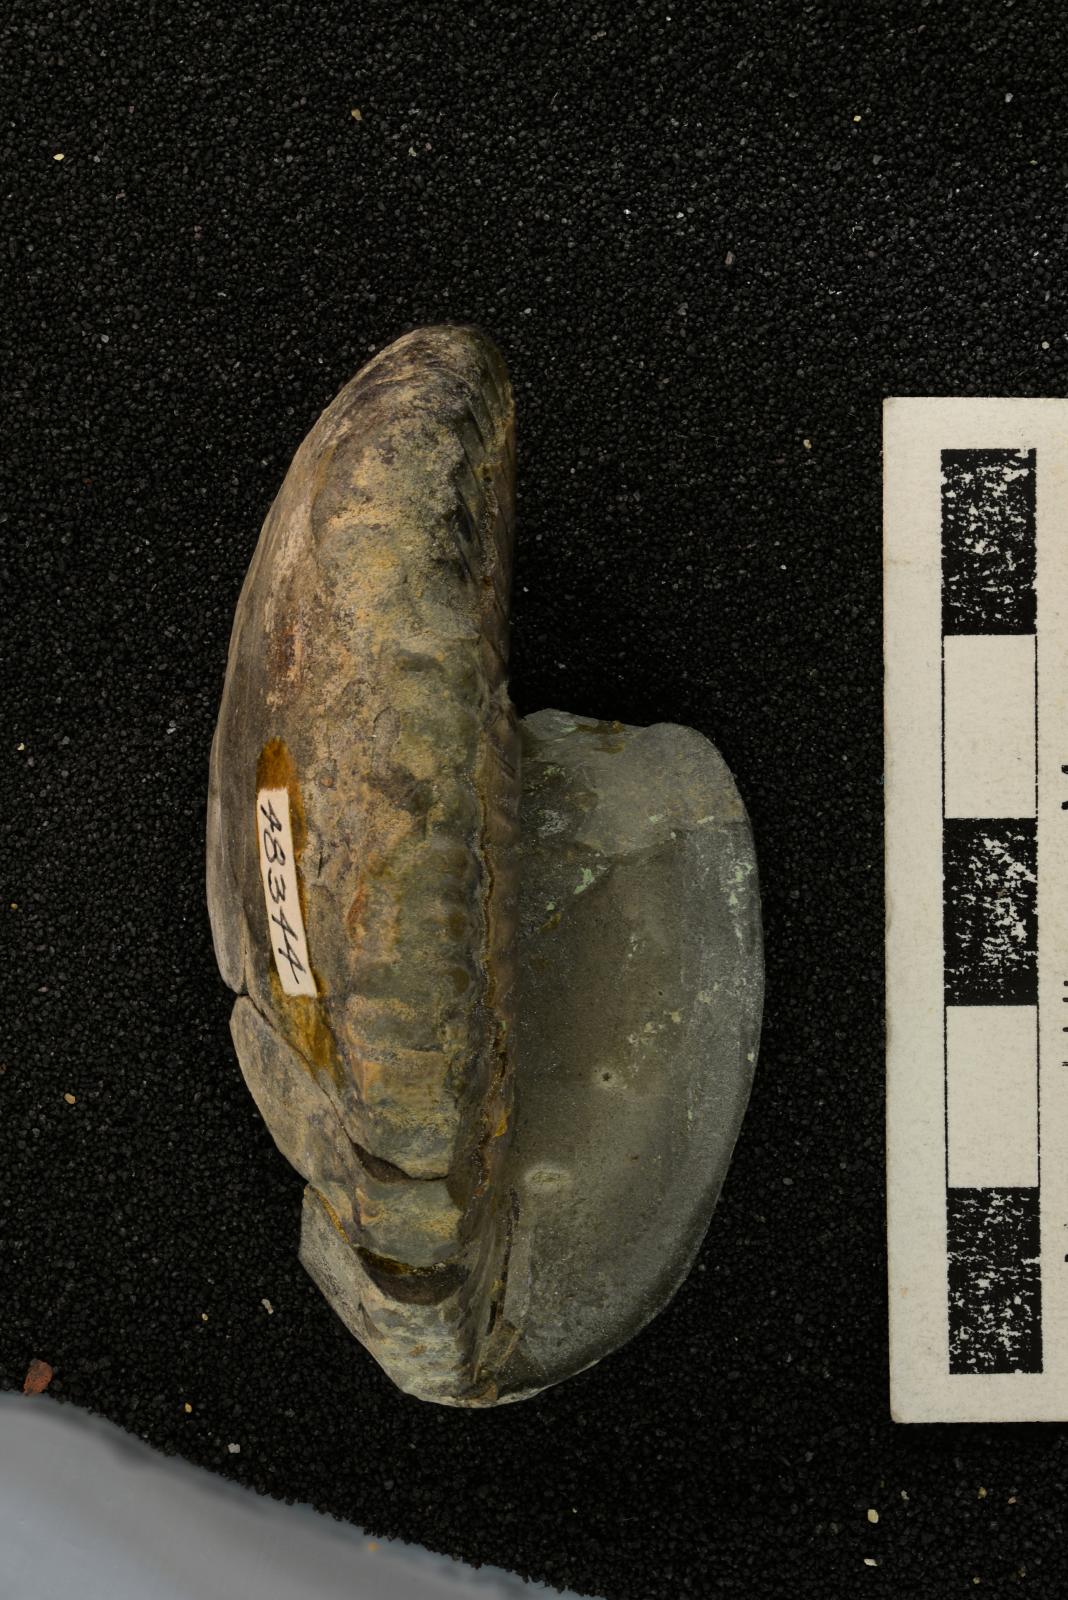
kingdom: Animalia
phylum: Mollusca
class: Cephalopoda
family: Megacrioceratidae
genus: Shasticrioceras
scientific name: Shasticrioceras poniente
